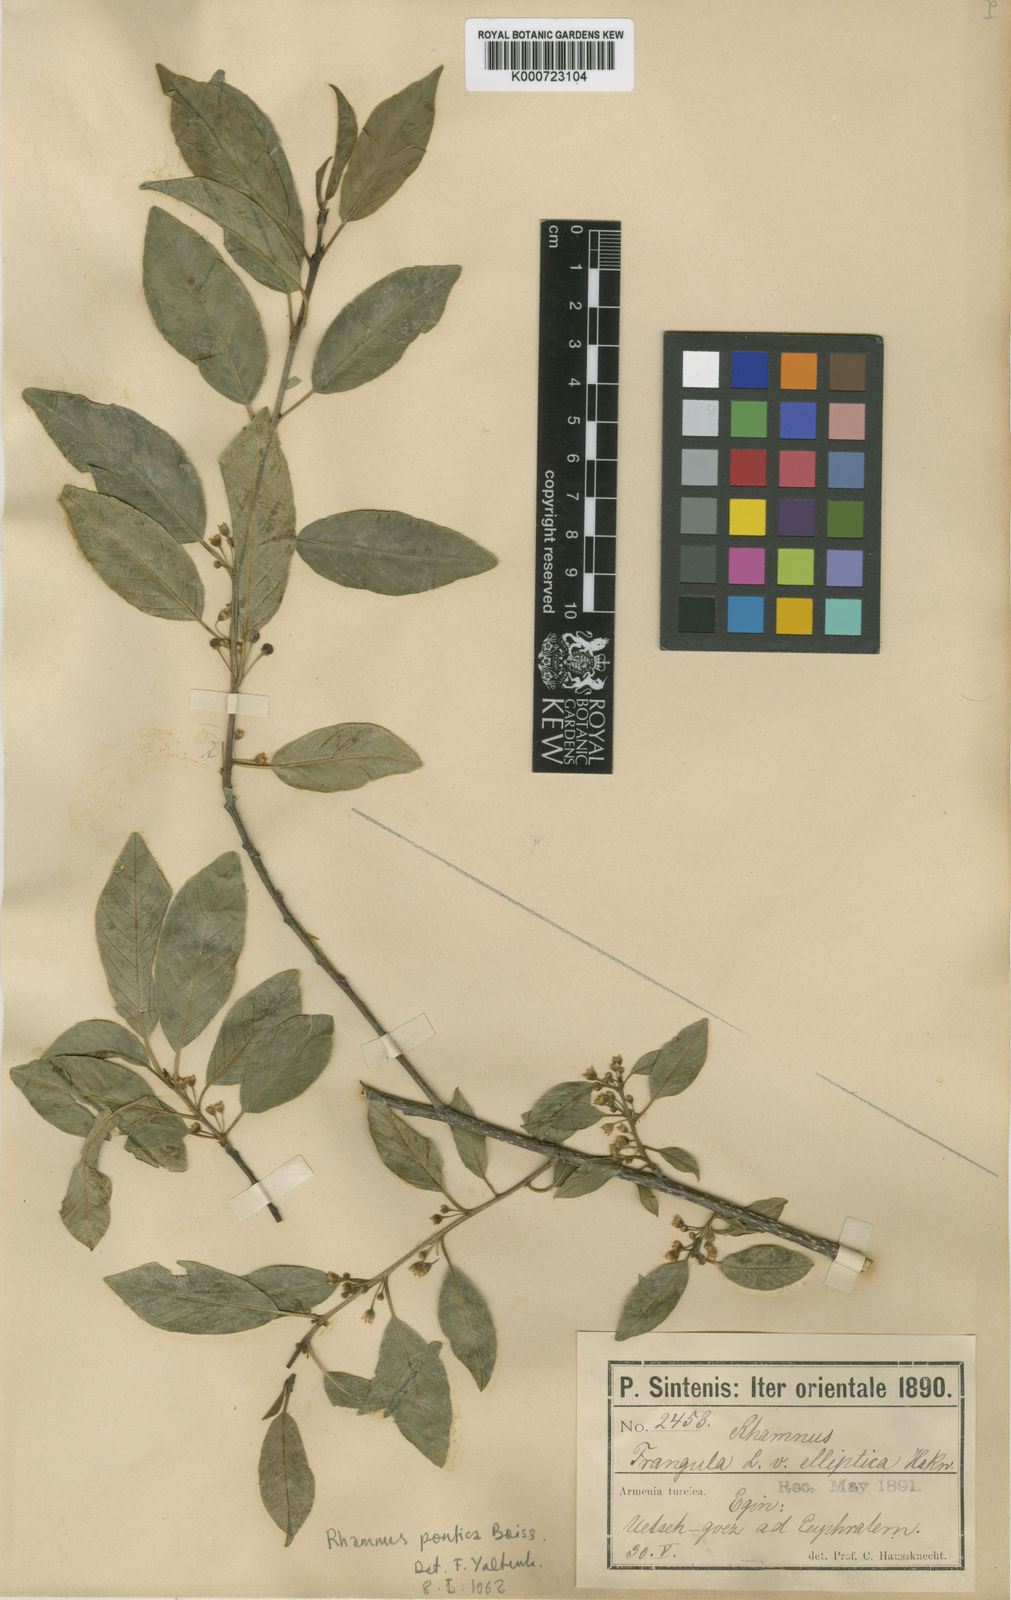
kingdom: Plantae
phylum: Tracheophyta
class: Magnoliopsida
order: Rosales
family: Rhamnaceae
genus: Frangula
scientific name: Frangula alnus
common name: Alder buckthorn
